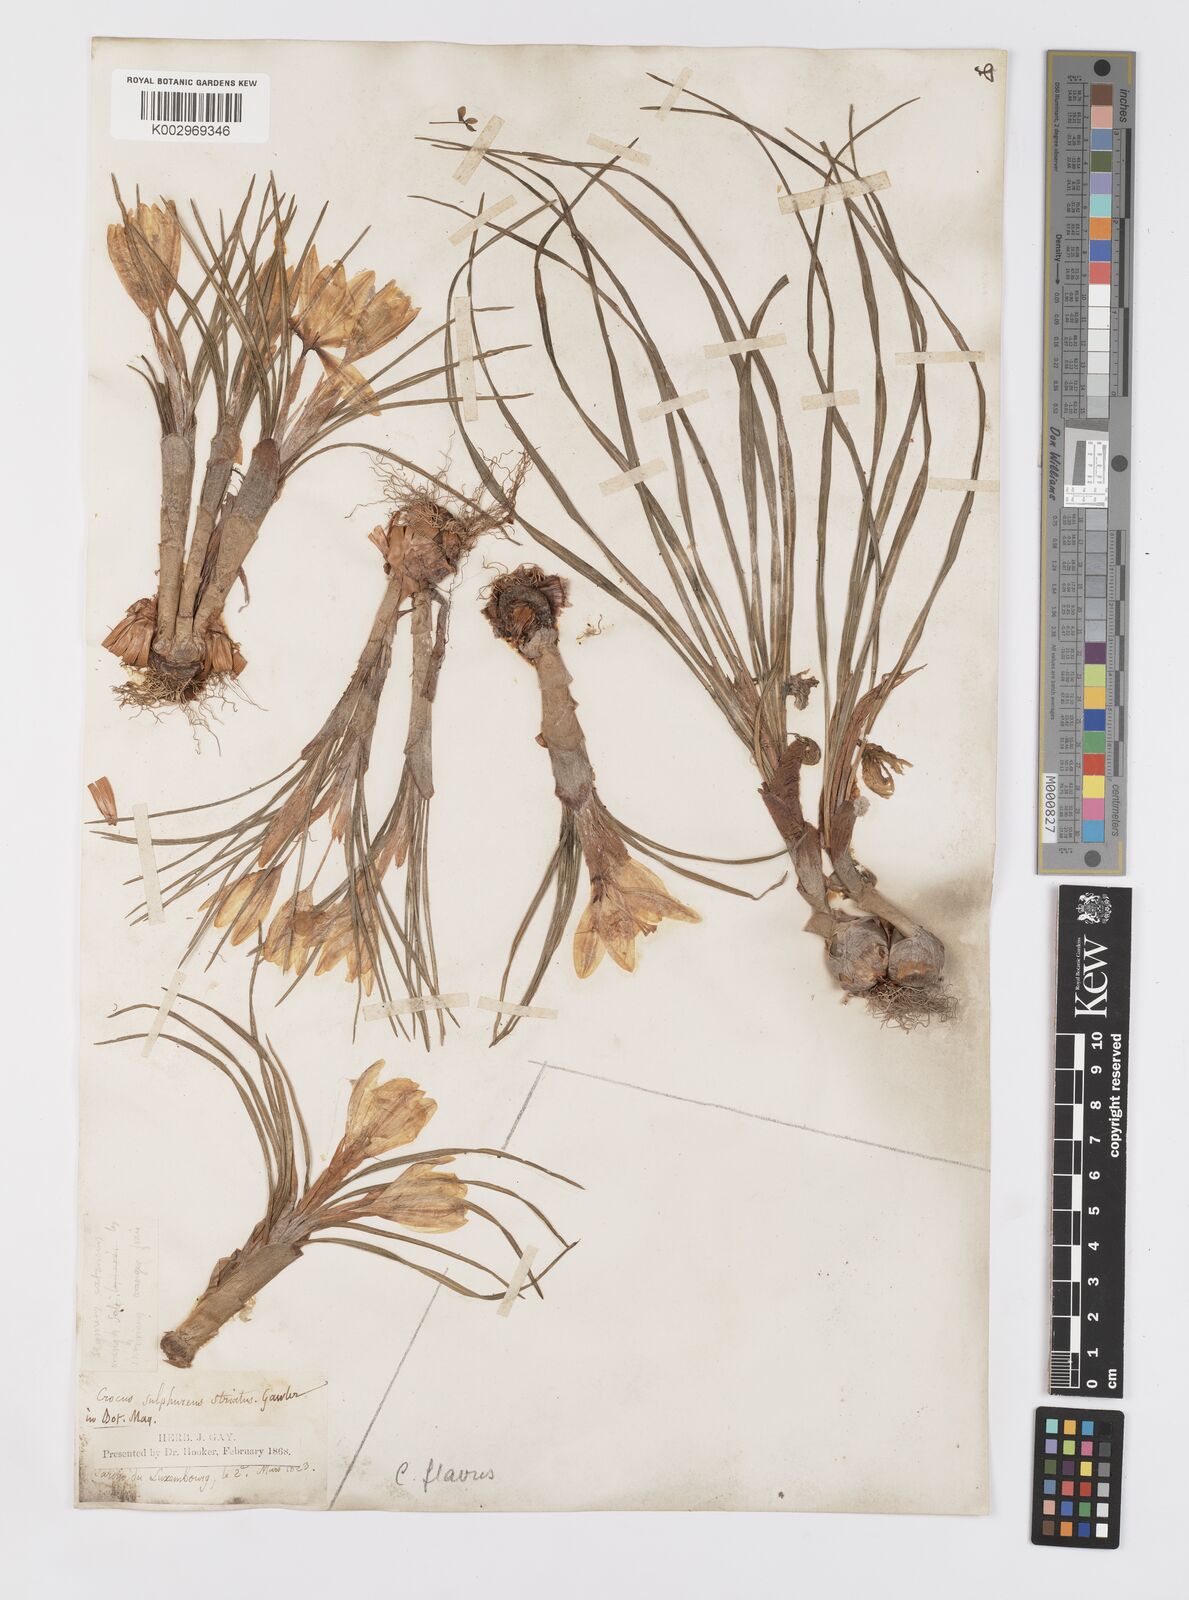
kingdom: Plantae
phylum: Tracheophyta
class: Liliopsida
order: Asparagales
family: Iridaceae
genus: Crocus
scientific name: Crocus flavus
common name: Yellow crocus
